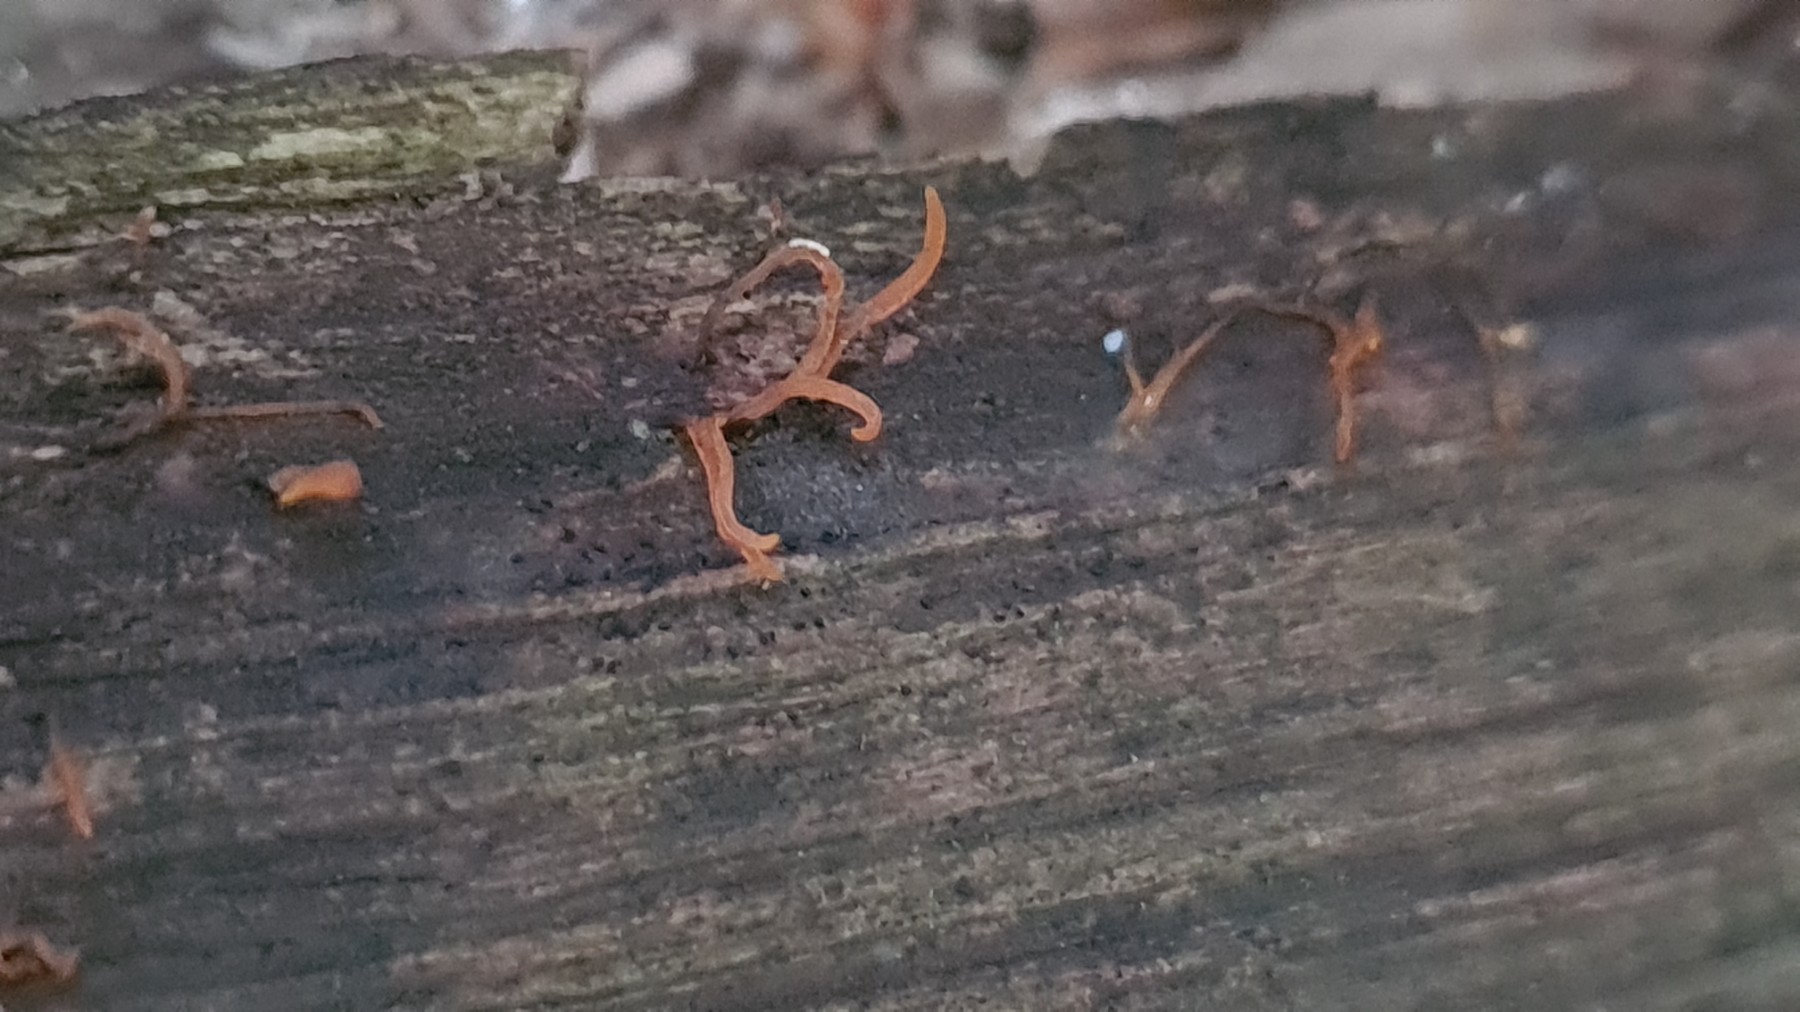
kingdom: Fungi
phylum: Basidiomycota
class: Dacrymycetes
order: Dacrymycetales
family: Dacrymycetaceae
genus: Calocera
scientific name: Calocera
